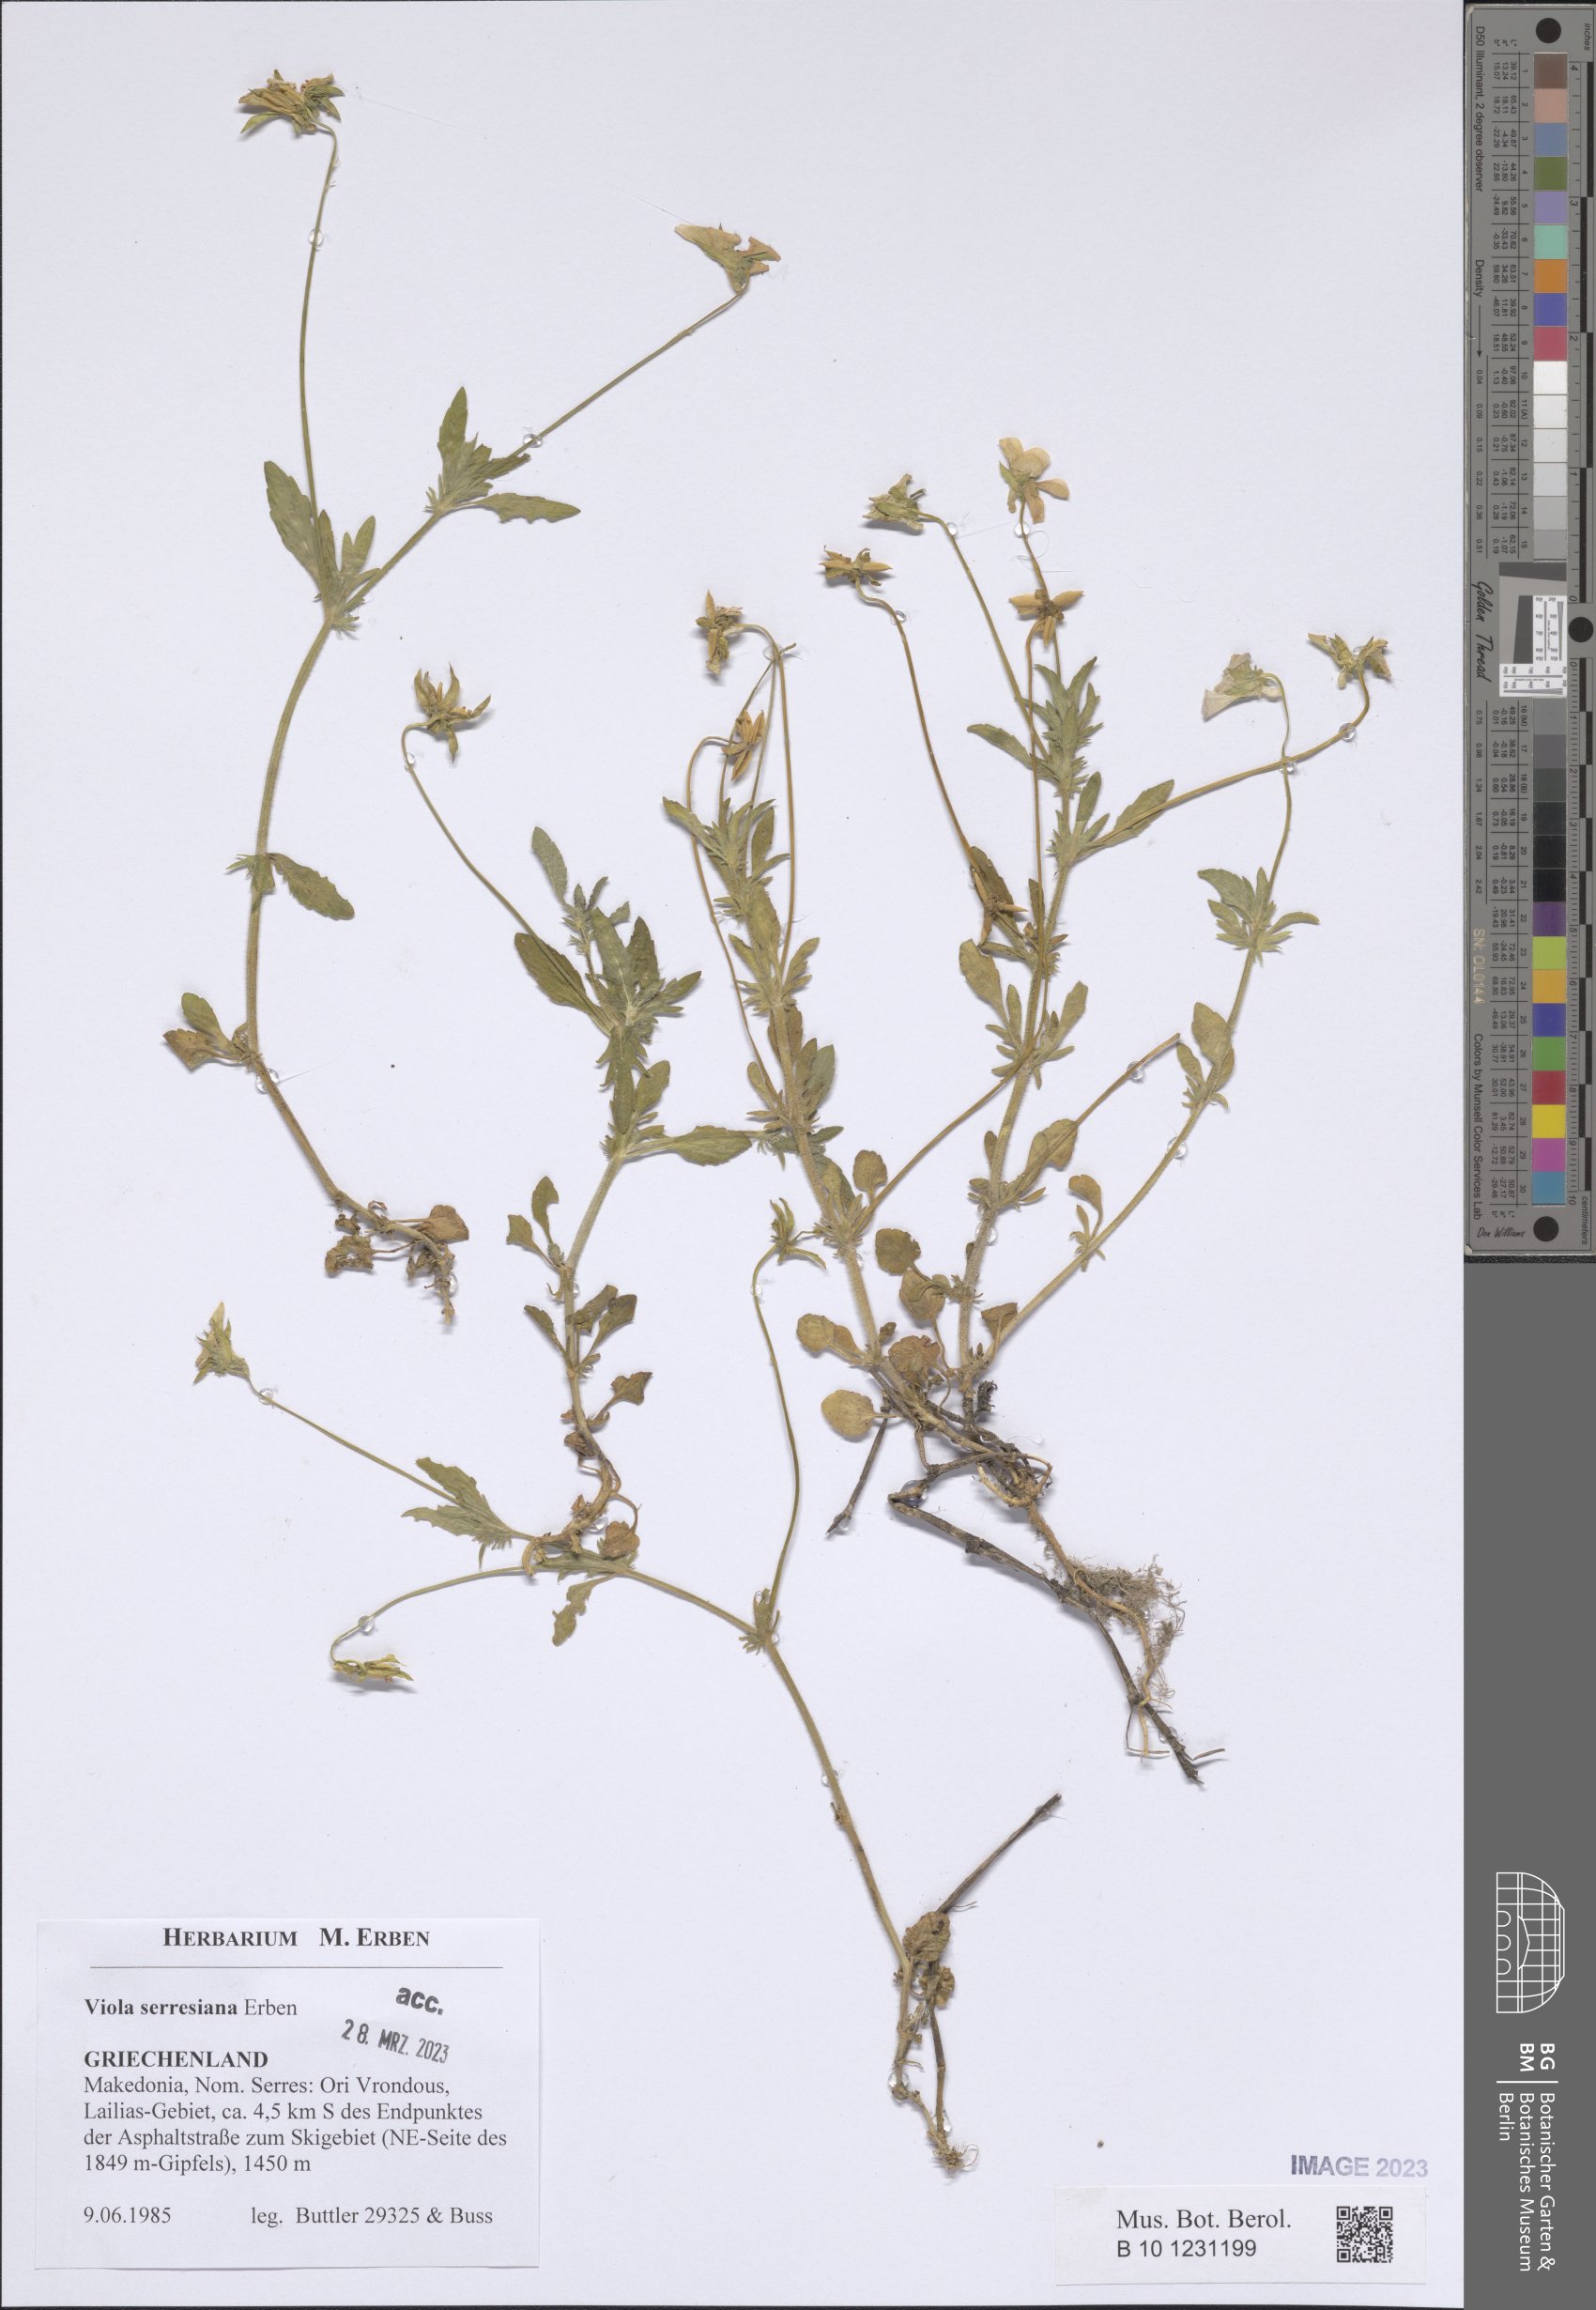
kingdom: Plantae
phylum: Tracheophyta
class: Magnoliopsida
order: Malpighiales
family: Violaceae
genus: Viola
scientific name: Viola serresiana
